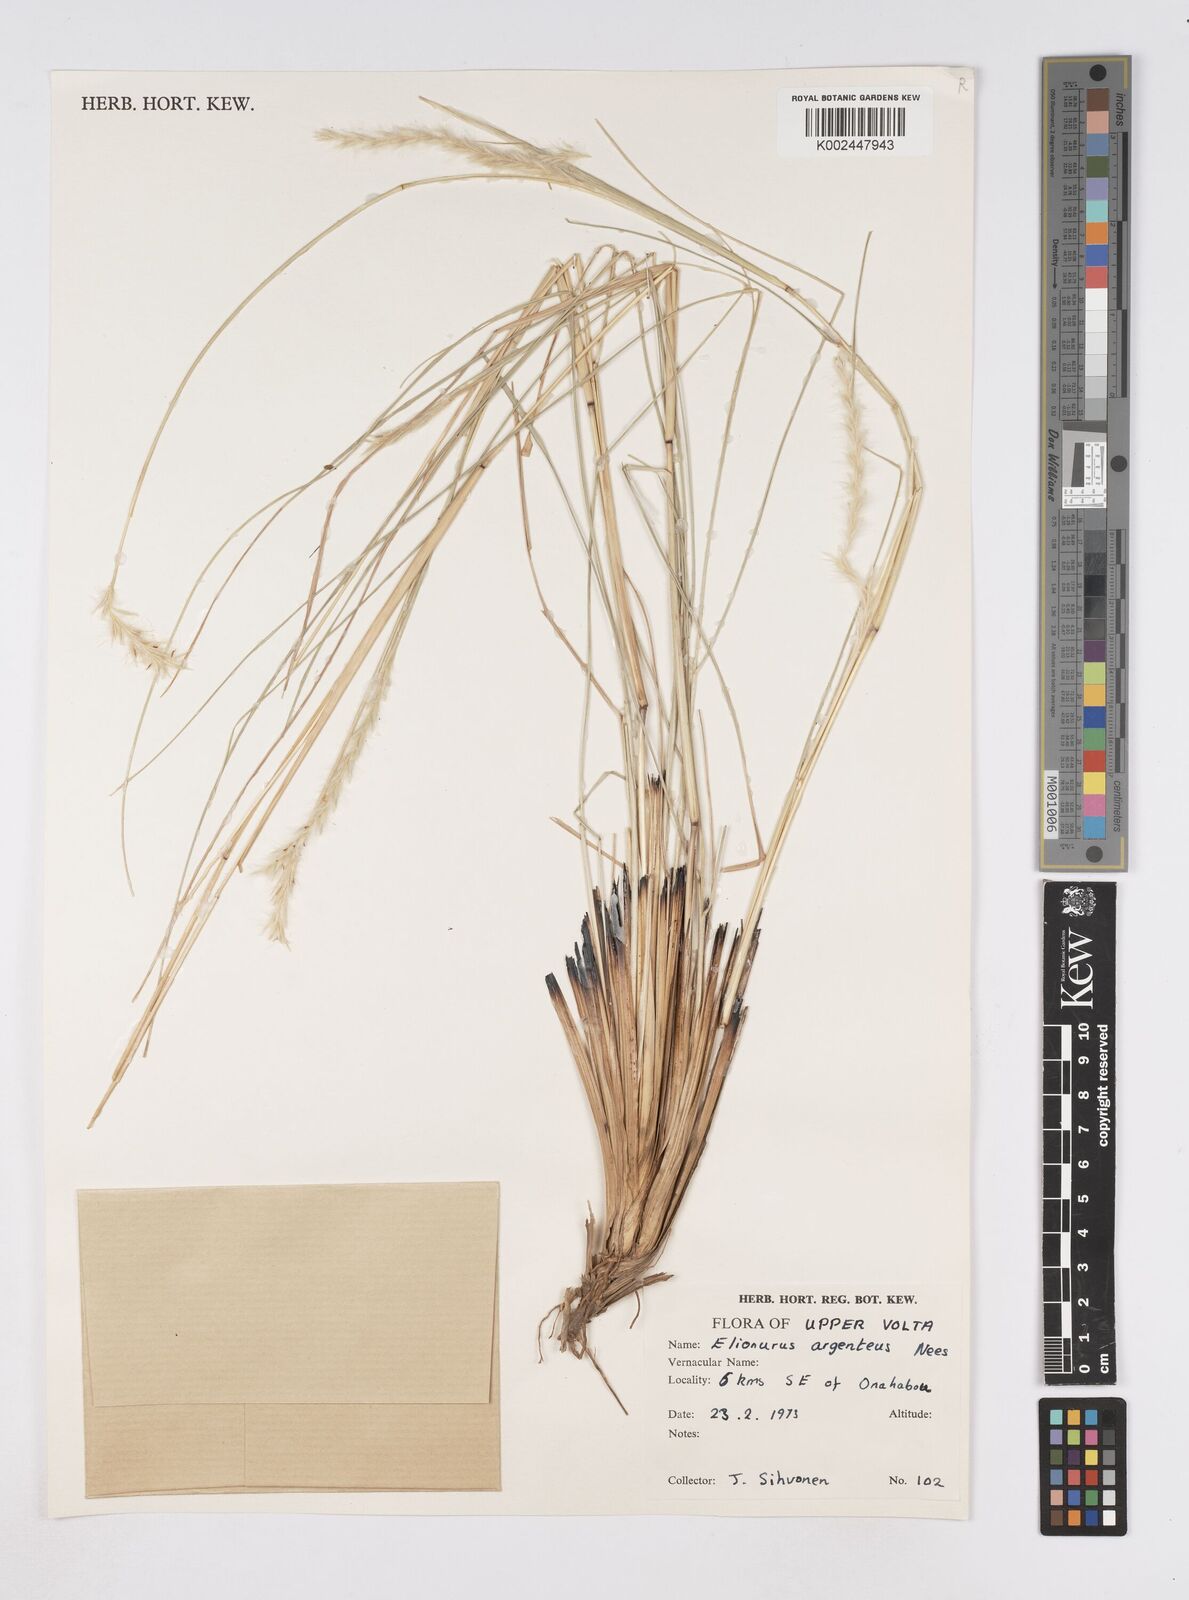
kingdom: Plantae
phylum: Tracheophyta
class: Liliopsida
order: Poales
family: Poaceae
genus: Elionurus
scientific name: Elionurus muticus
